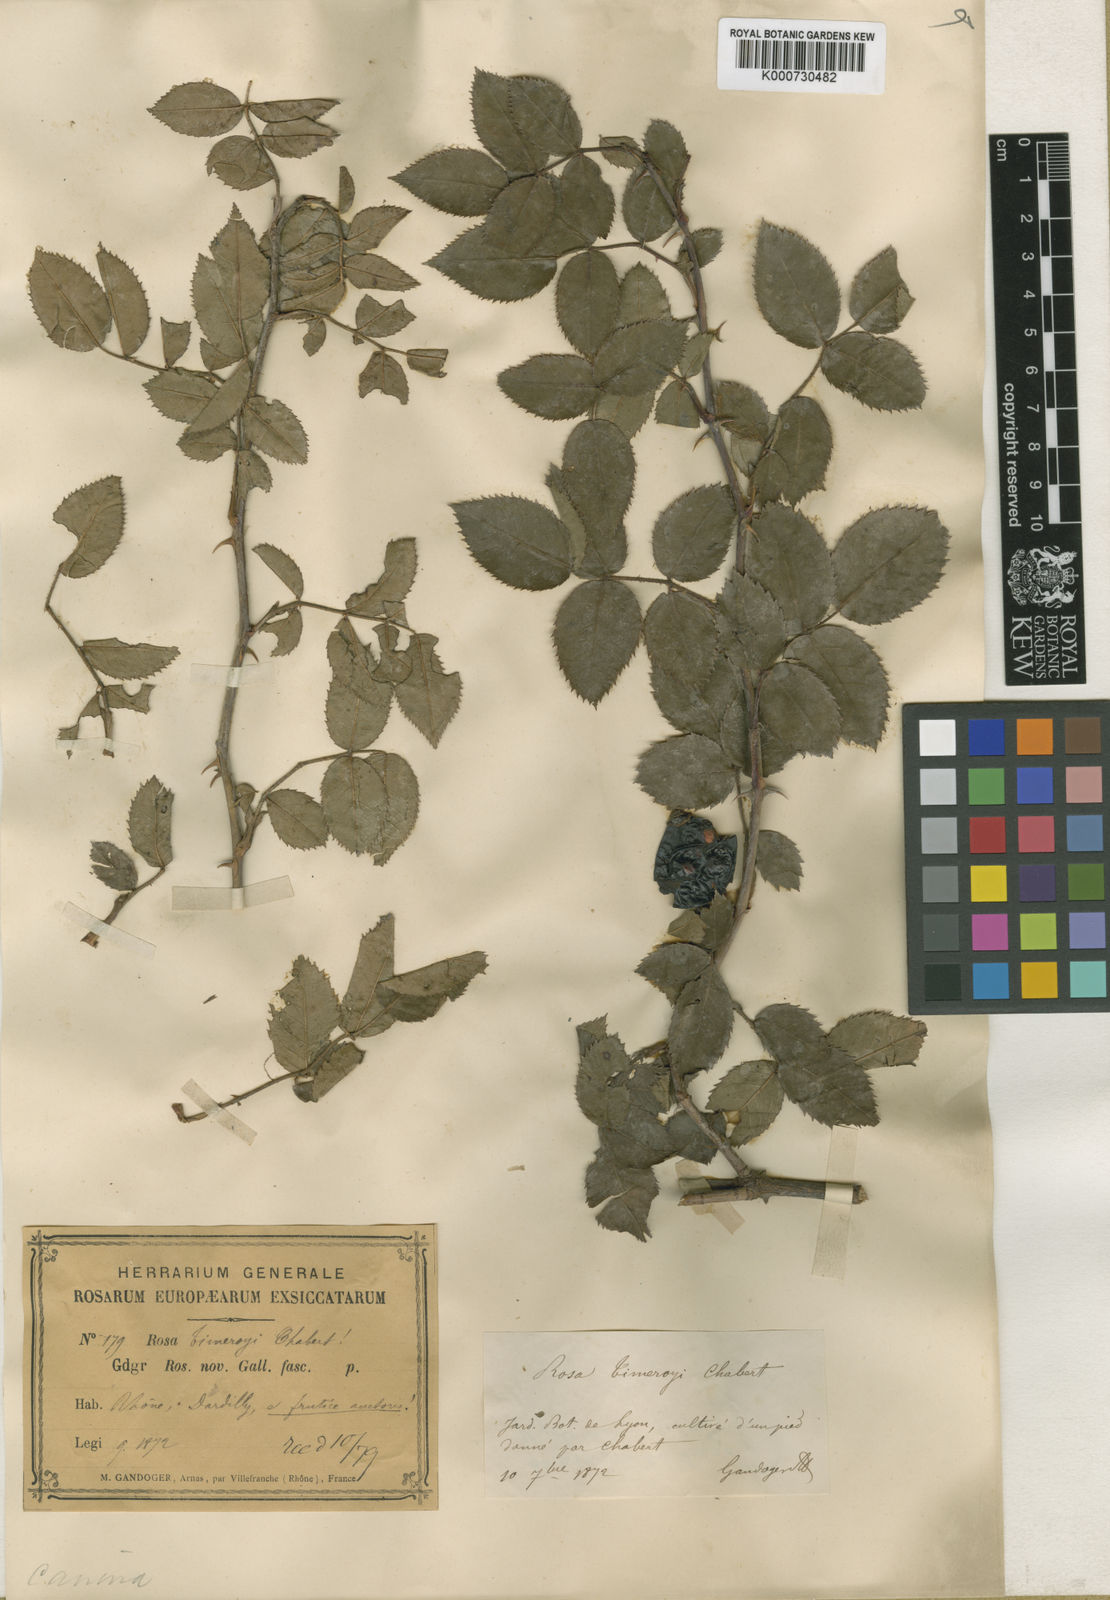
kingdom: Plantae
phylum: Tracheophyta
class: Magnoliopsida
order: Rosales
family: Rosaceae
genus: Rosa
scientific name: Rosa canina
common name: Dog rose
